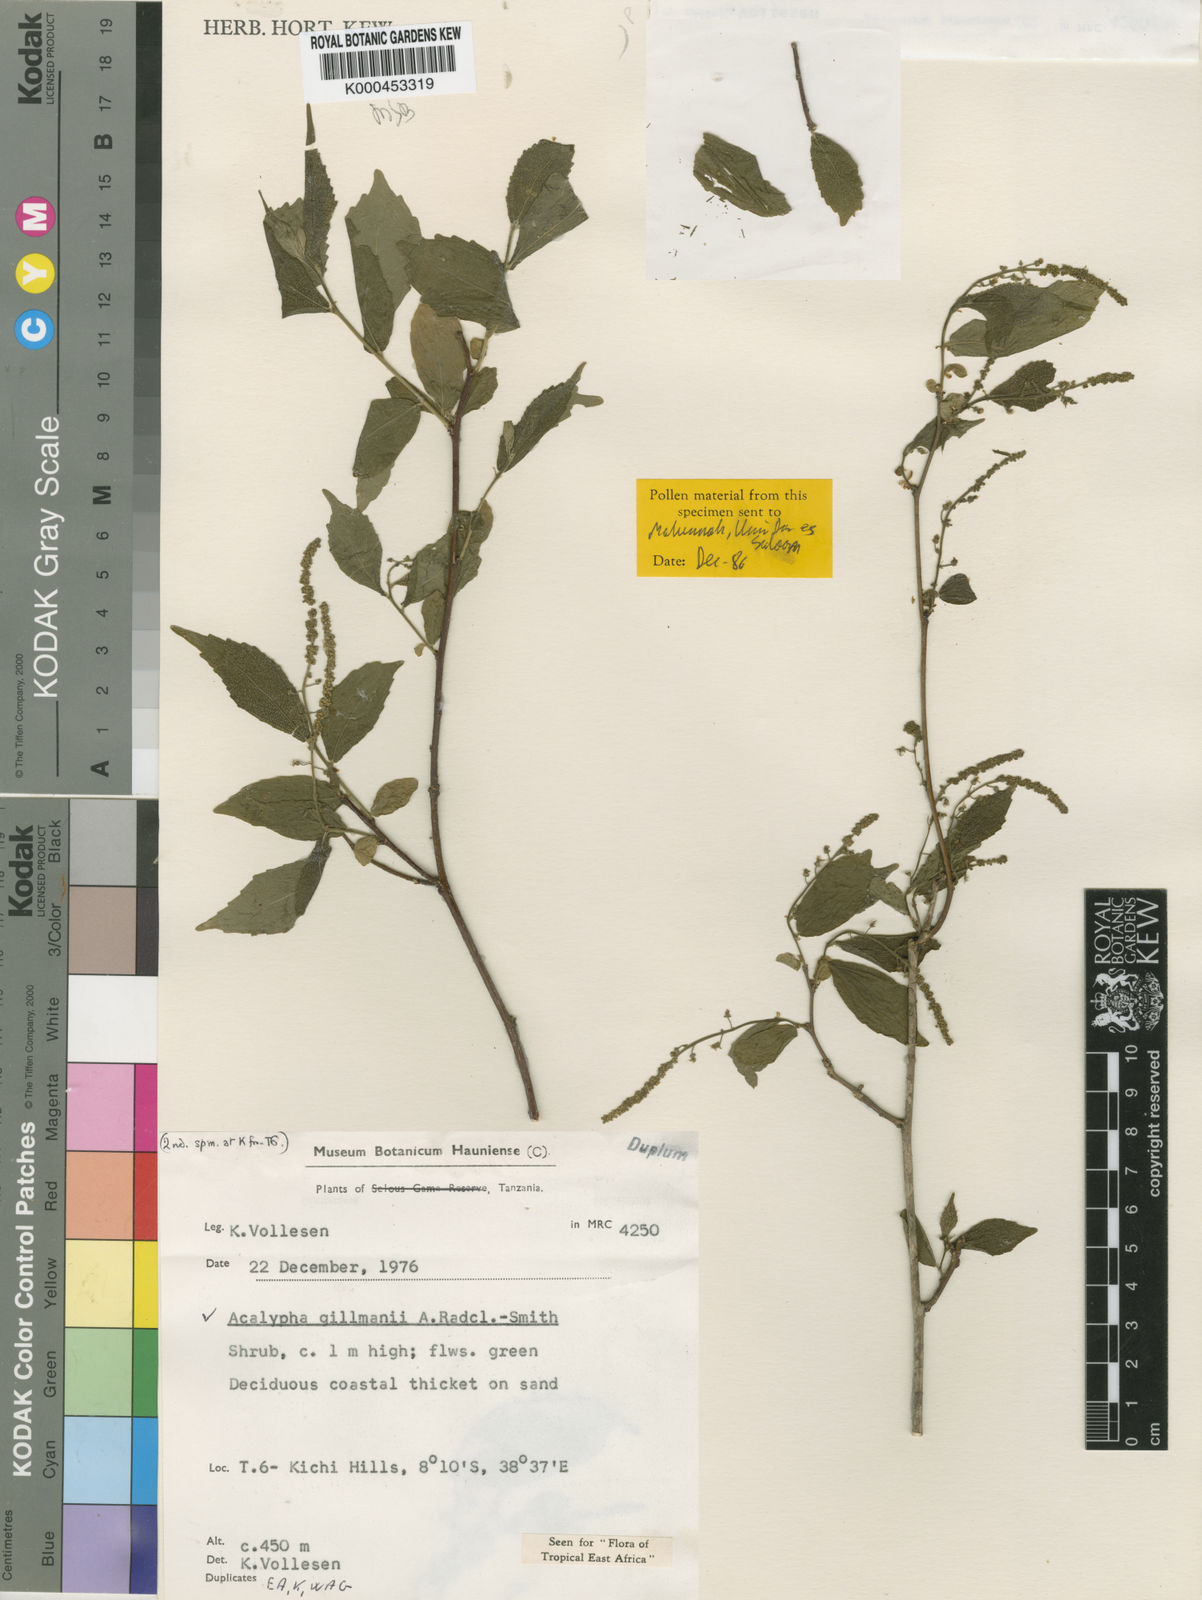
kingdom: Plantae
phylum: Tracheophyta
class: Magnoliopsida
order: Malpighiales
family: Euphorbiaceae
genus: Acalypha
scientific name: Acalypha
